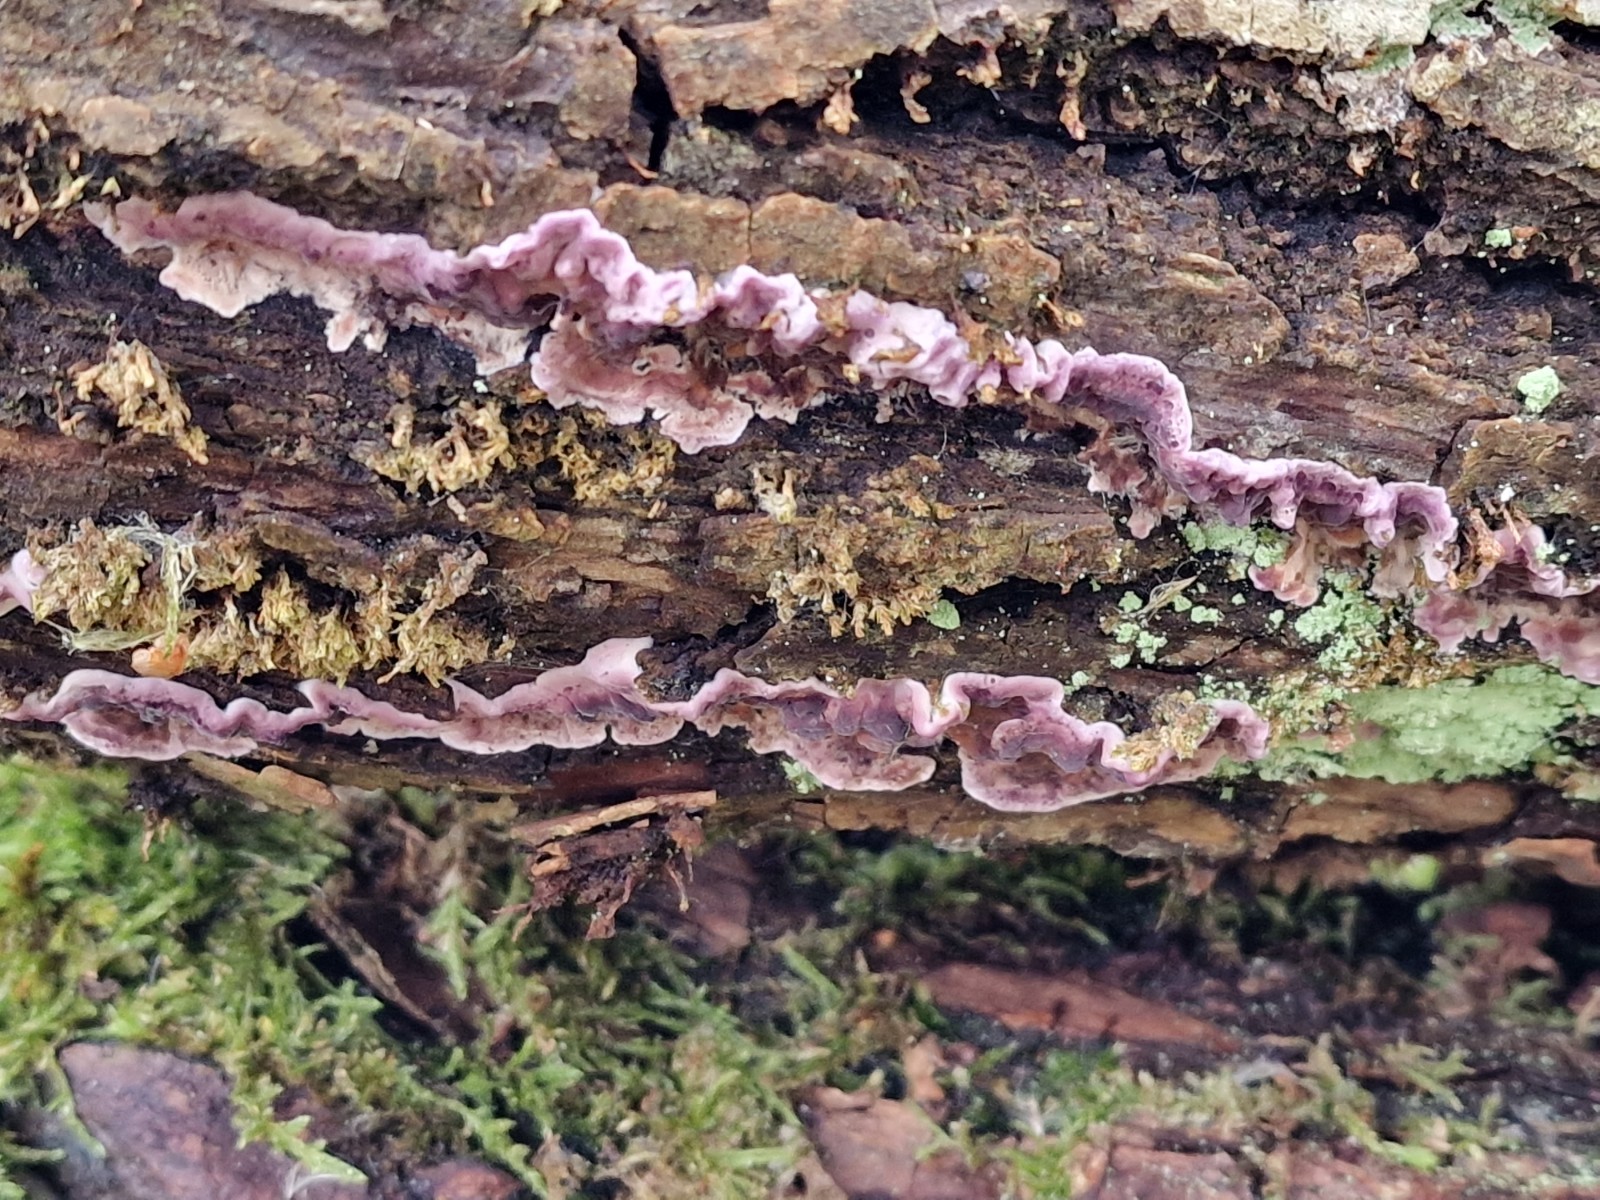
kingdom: Fungi
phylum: Basidiomycota
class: Agaricomycetes
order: Agaricales
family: Cyphellaceae
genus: Chondrostereum
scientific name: Chondrostereum purpureum
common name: purpurlædersvamp
